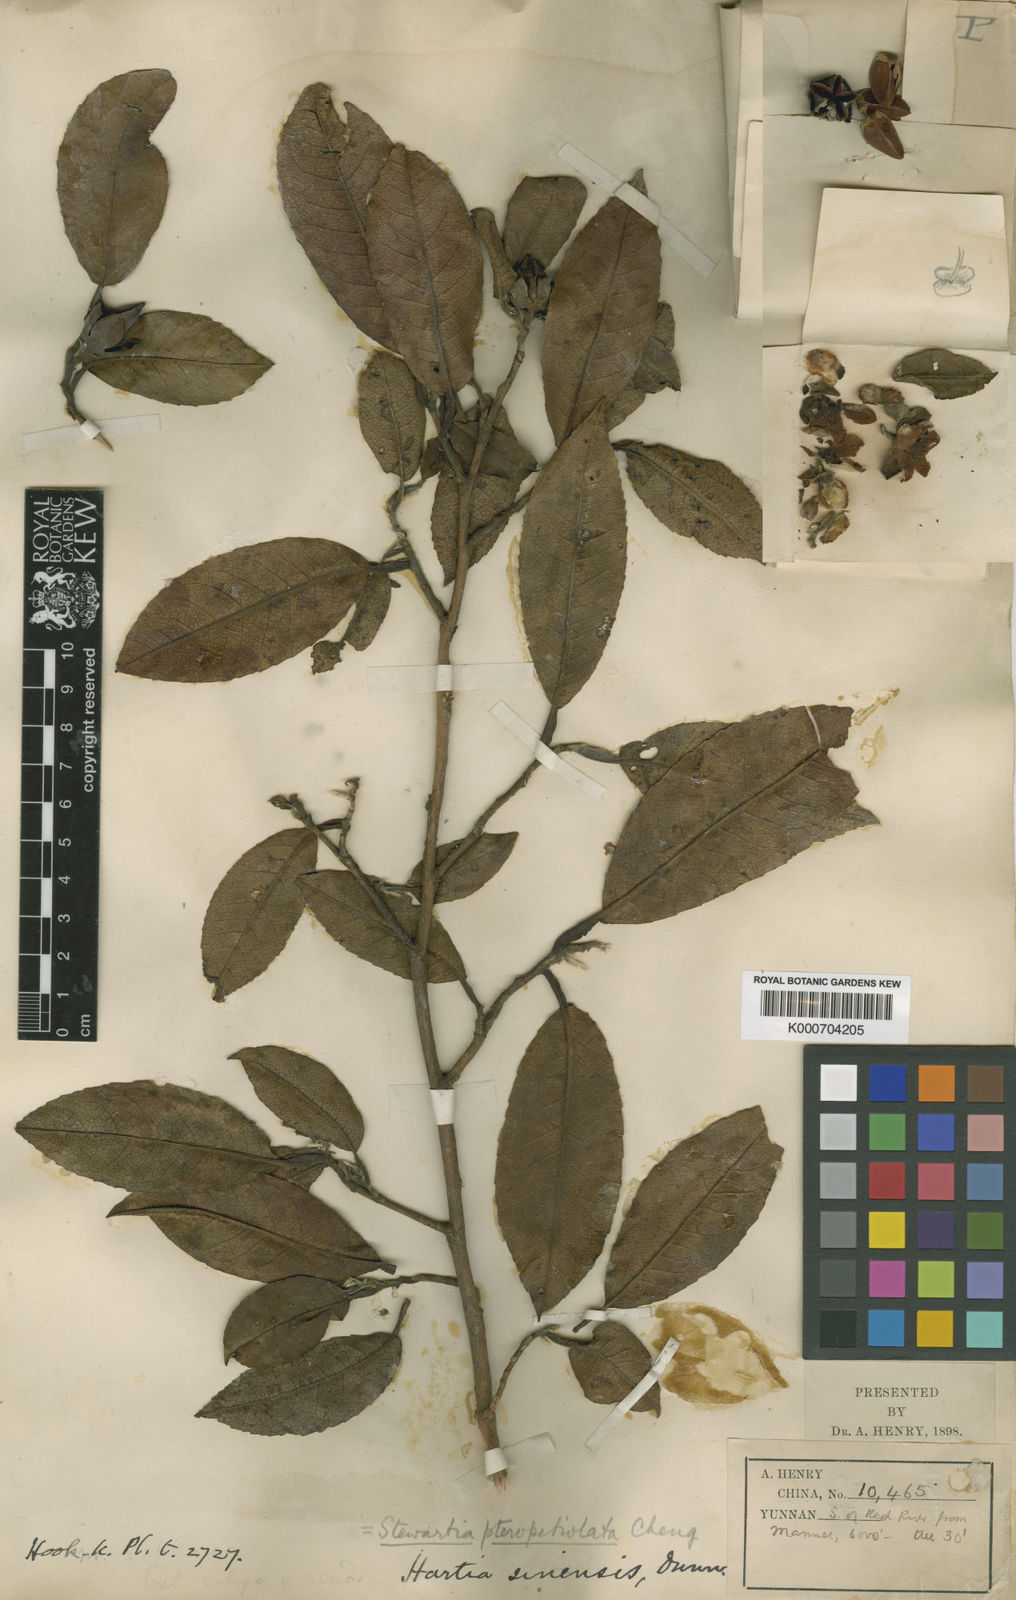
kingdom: Plantae
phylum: Tracheophyta
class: Magnoliopsida
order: Ericales
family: Theaceae
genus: Stewartia
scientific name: Stewartia villosa
